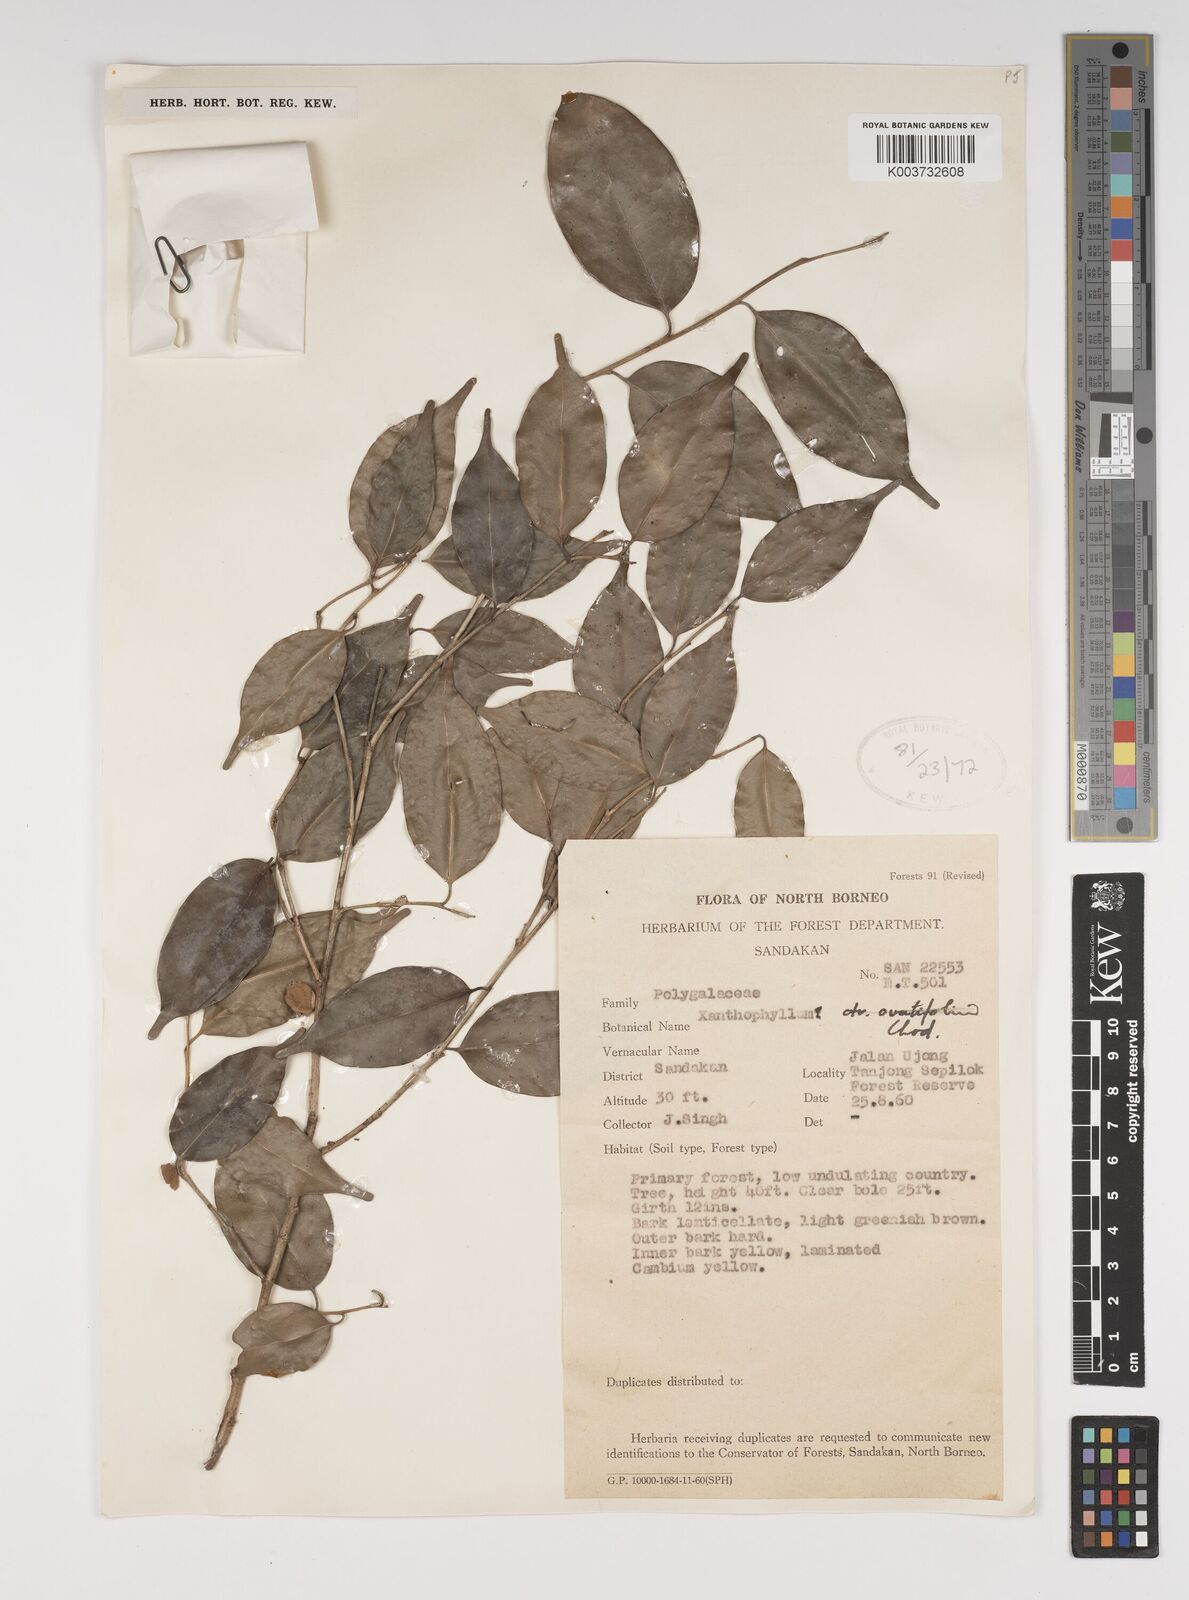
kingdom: Plantae
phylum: Tracheophyta
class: Magnoliopsida
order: Fabales
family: Polygalaceae
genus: Xanthophyllum
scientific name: Xanthophyllum
